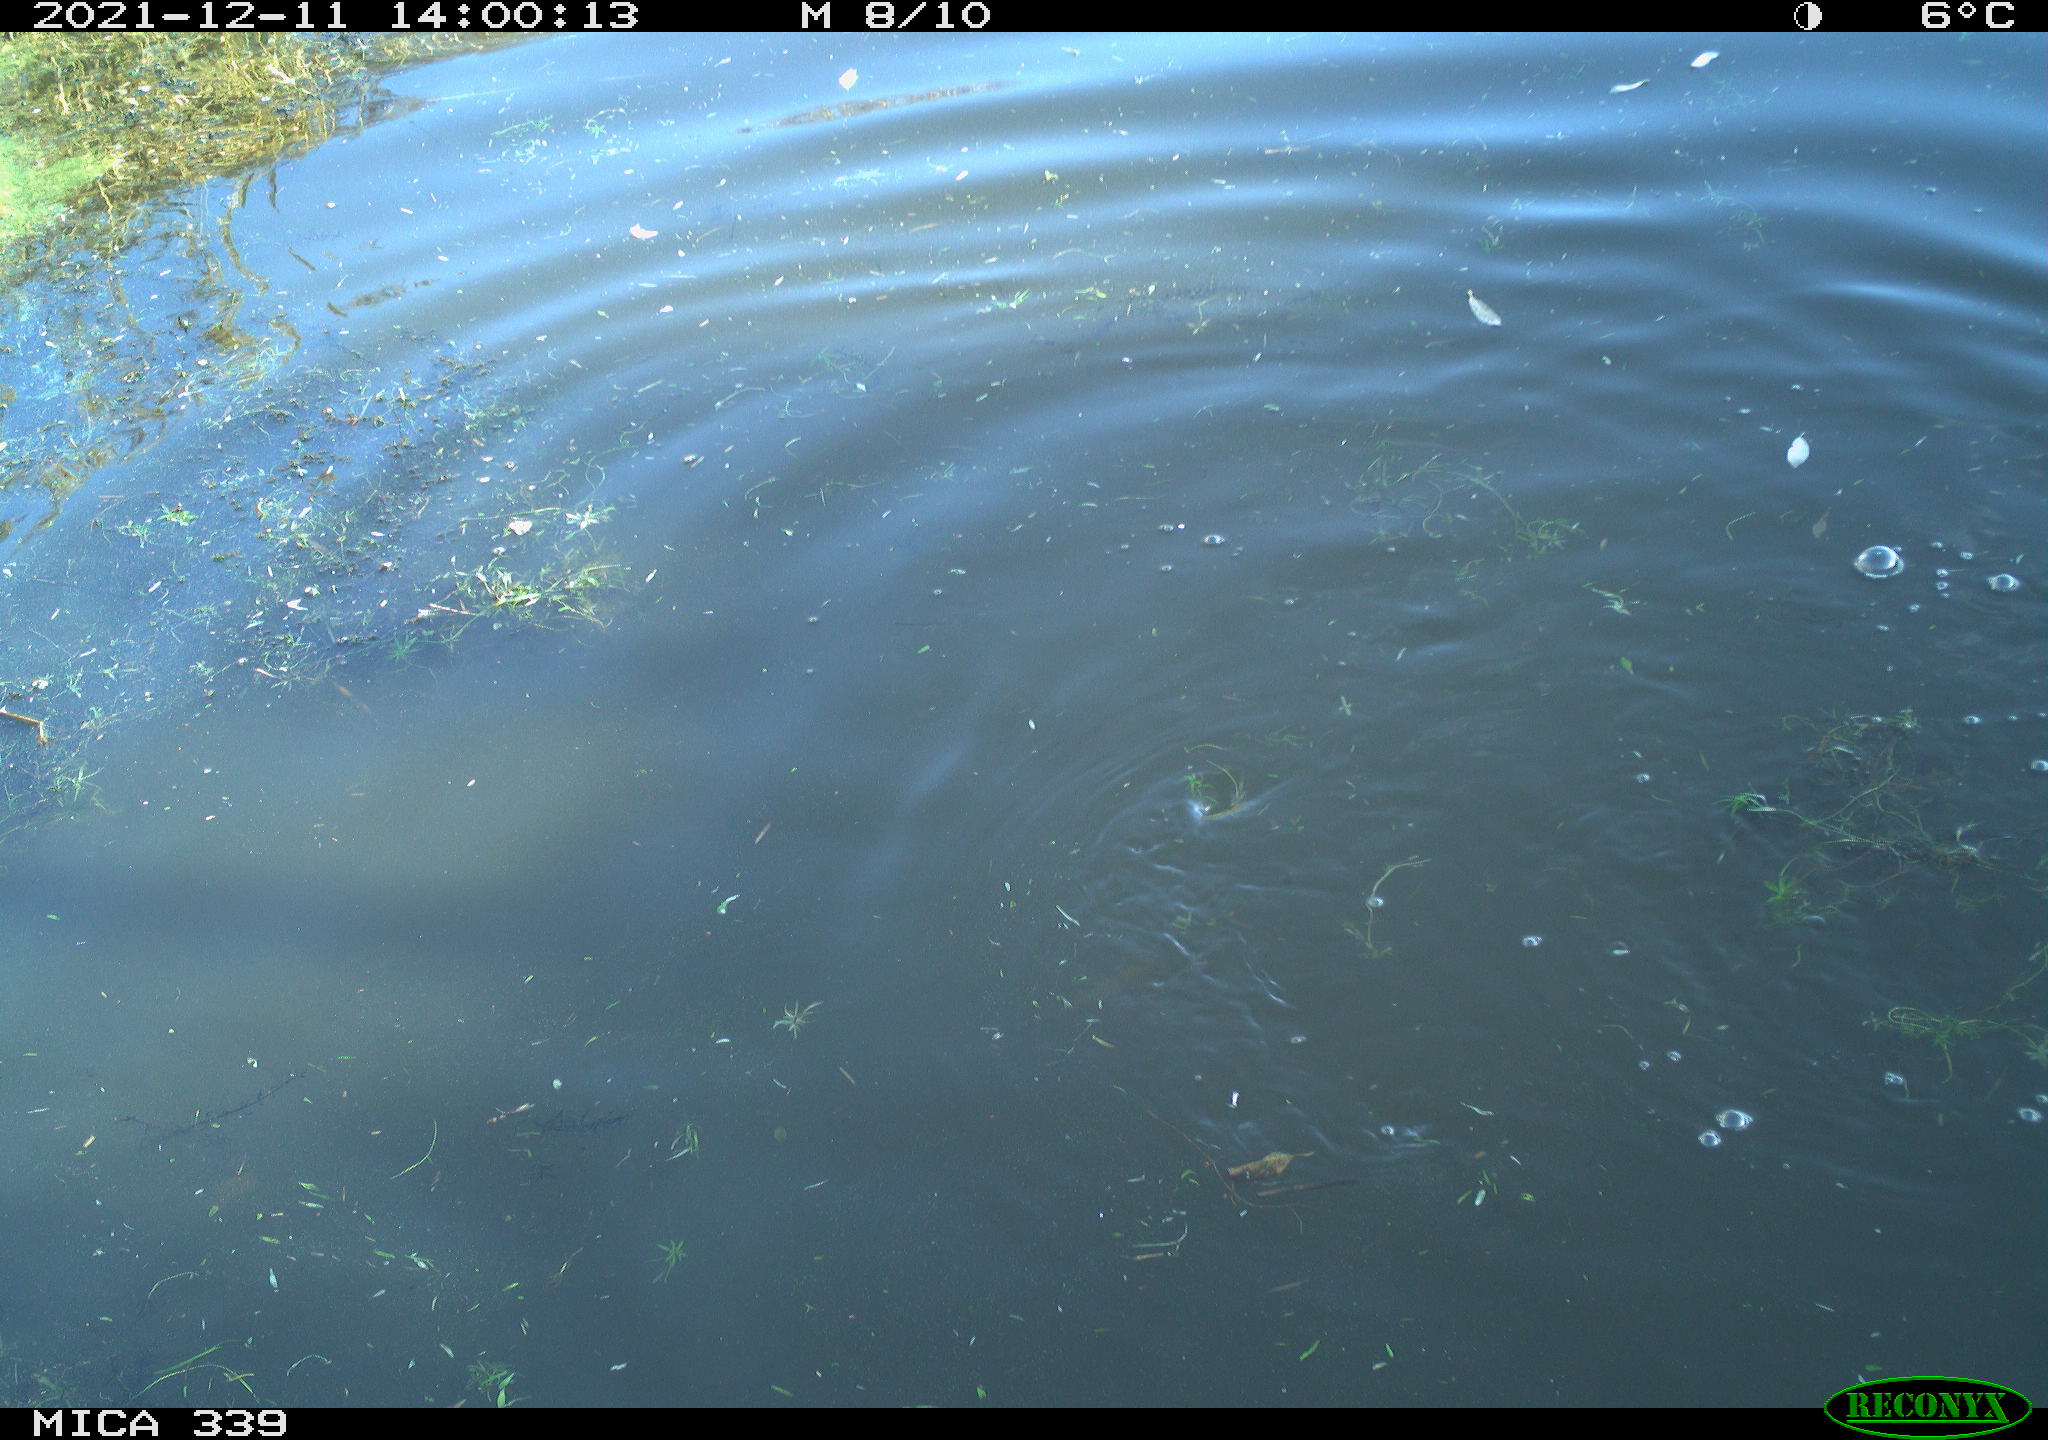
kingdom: Animalia
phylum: Chordata
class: Aves
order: Suliformes
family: Phalacrocoracidae
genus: Phalacrocorax
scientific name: Phalacrocorax carbo
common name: Great cormorant
